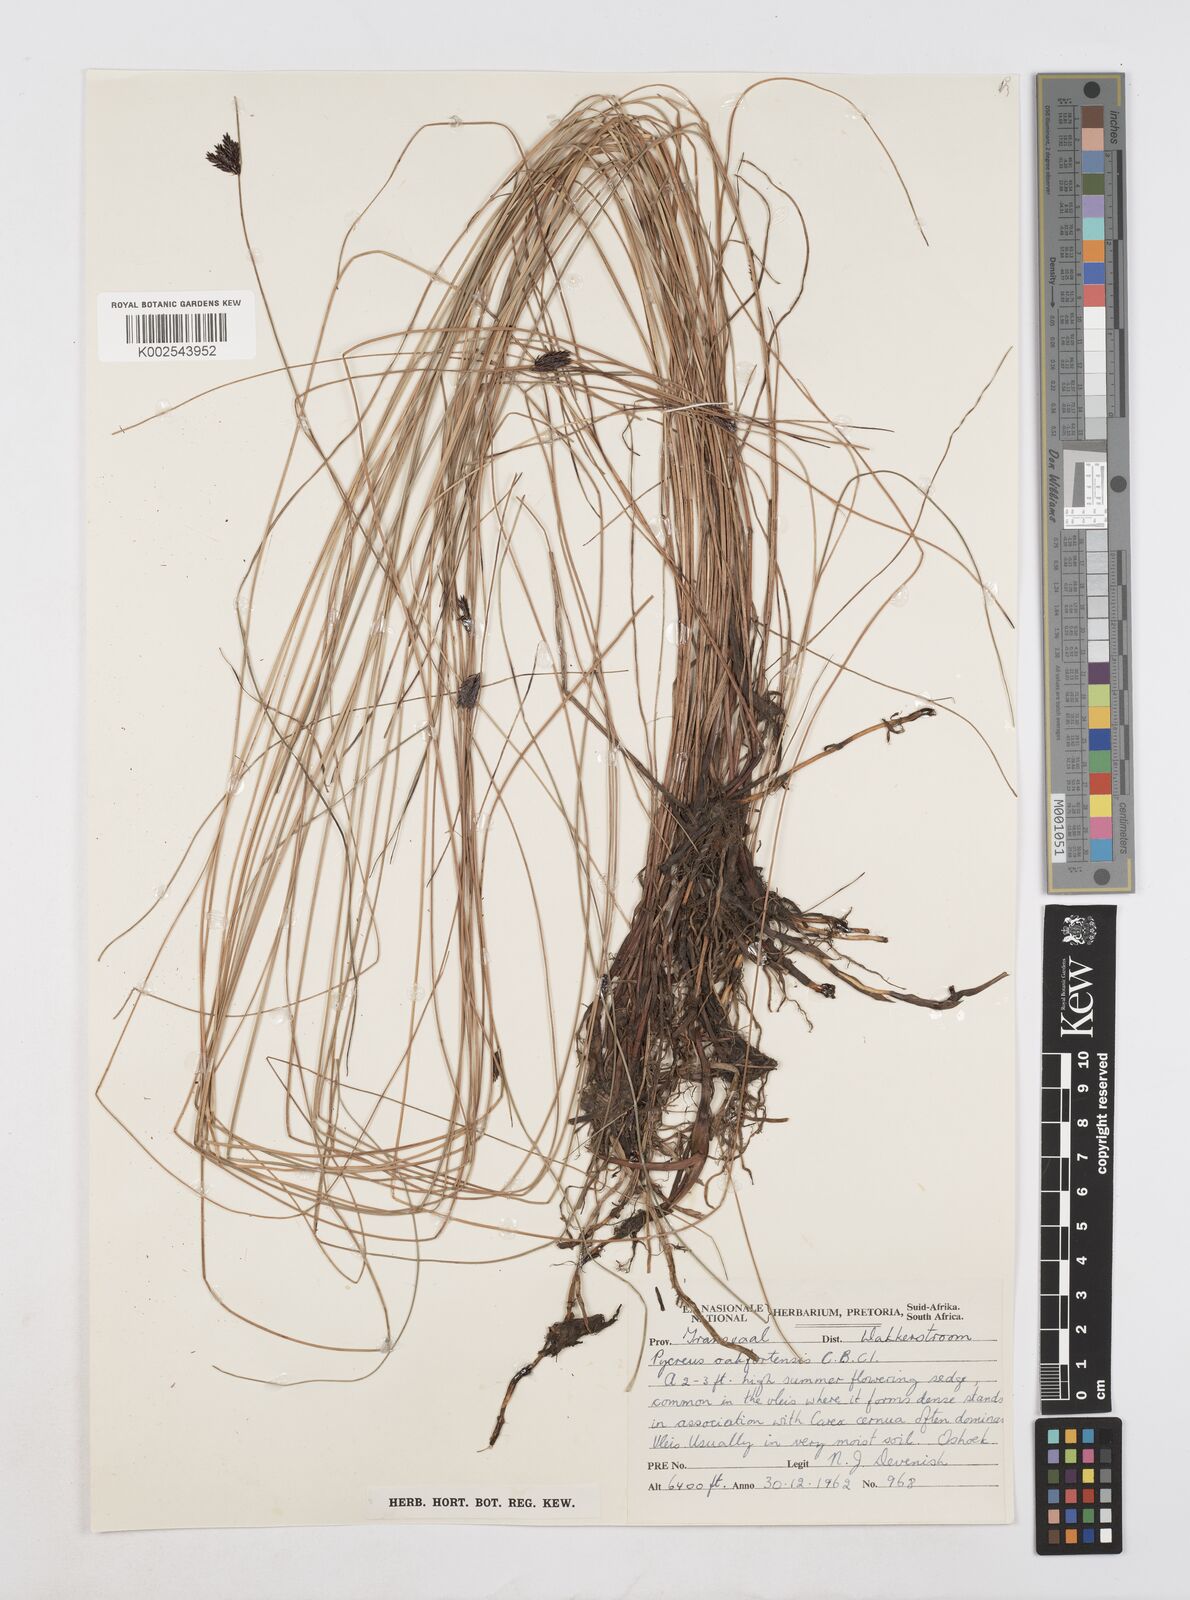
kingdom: Plantae
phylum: Tracheophyta
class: Liliopsida
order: Poales
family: Cyperaceae
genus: Cyperus
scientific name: Cyperus nigricans
